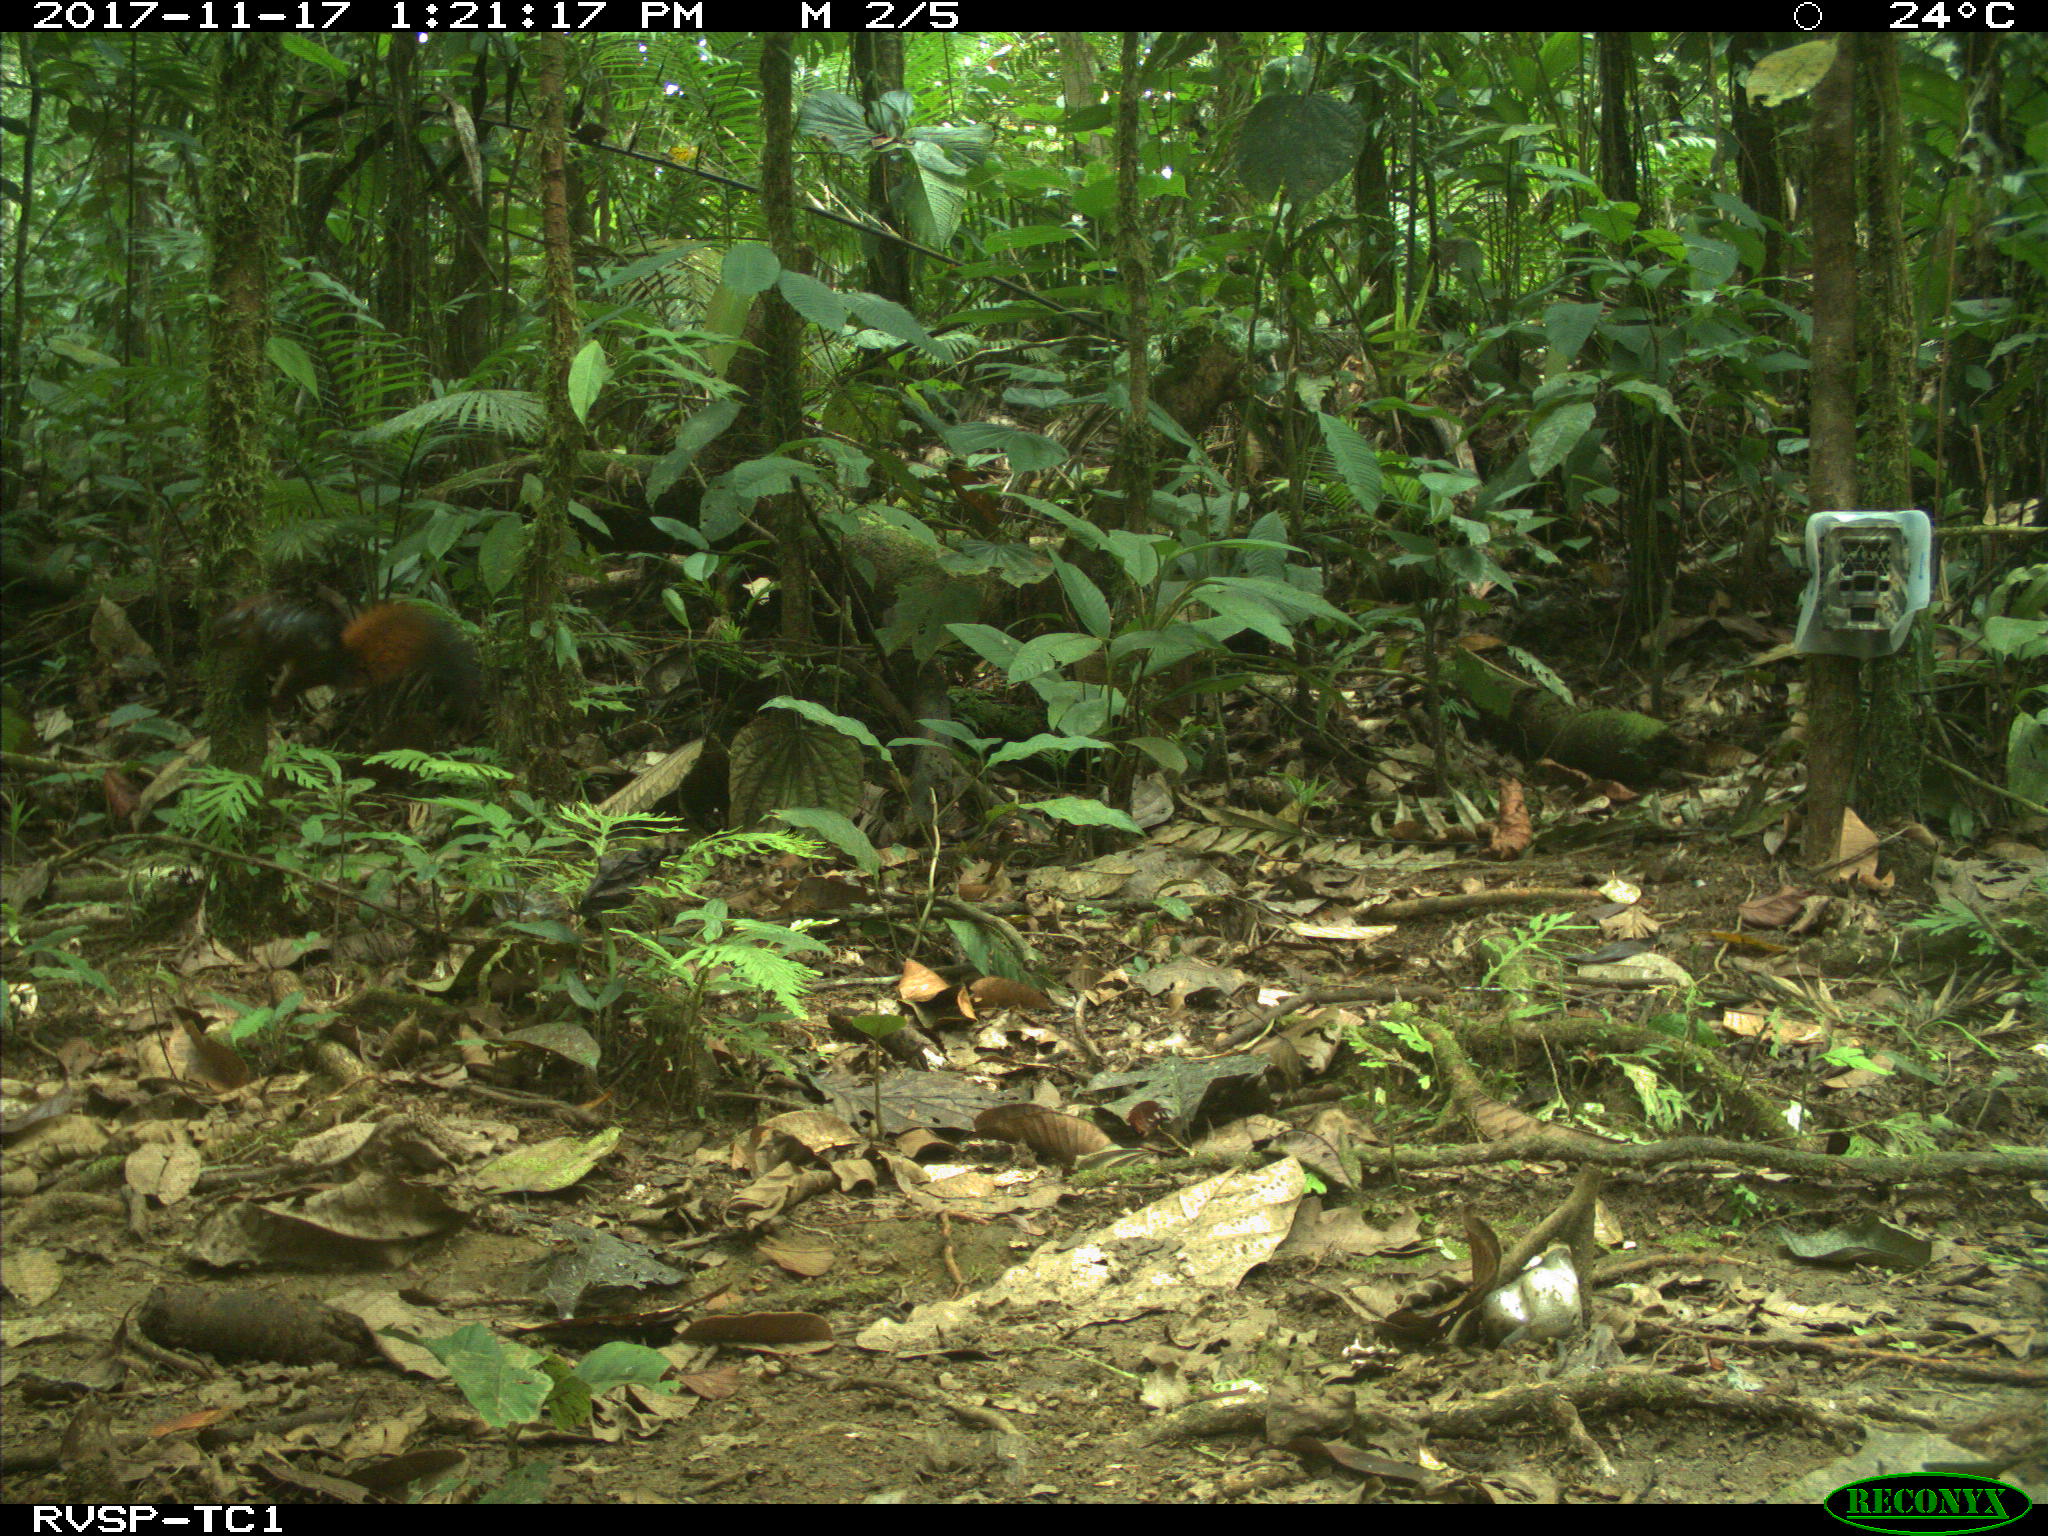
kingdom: Animalia
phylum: Chordata
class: Mammalia
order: Rodentia
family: Sciuridae
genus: Sciurus
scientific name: Sciurus granatensis
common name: Red-tailed squirrel
